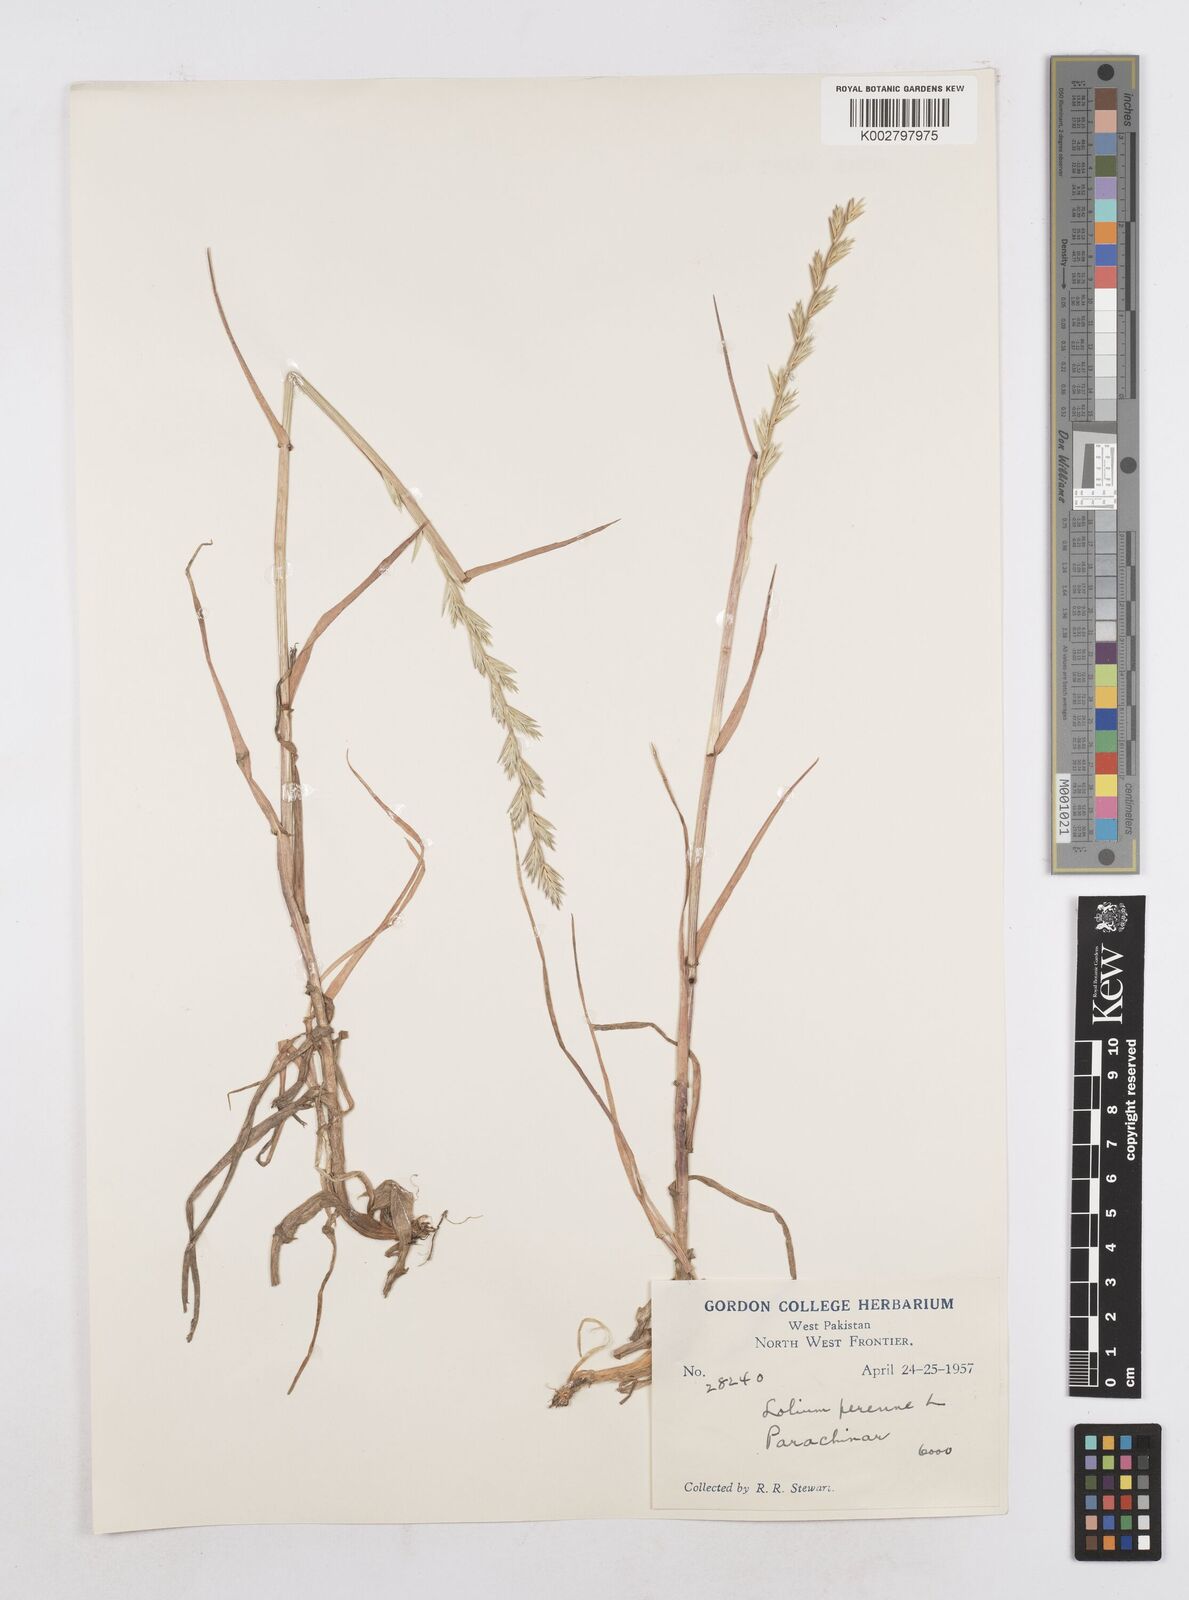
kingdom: Plantae
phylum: Tracheophyta
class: Liliopsida
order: Poales
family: Poaceae
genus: Lolium
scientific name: Lolium perenne
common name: Perennial ryegrass
